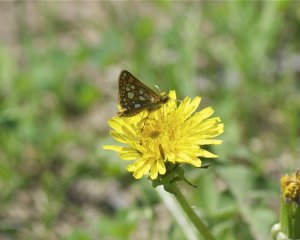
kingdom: Animalia
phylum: Arthropoda
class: Insecta
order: Lepidoptera
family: Hesperiidae
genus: Carterocephalus
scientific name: Carterocephalus palaemon
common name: Chequered Skipper
